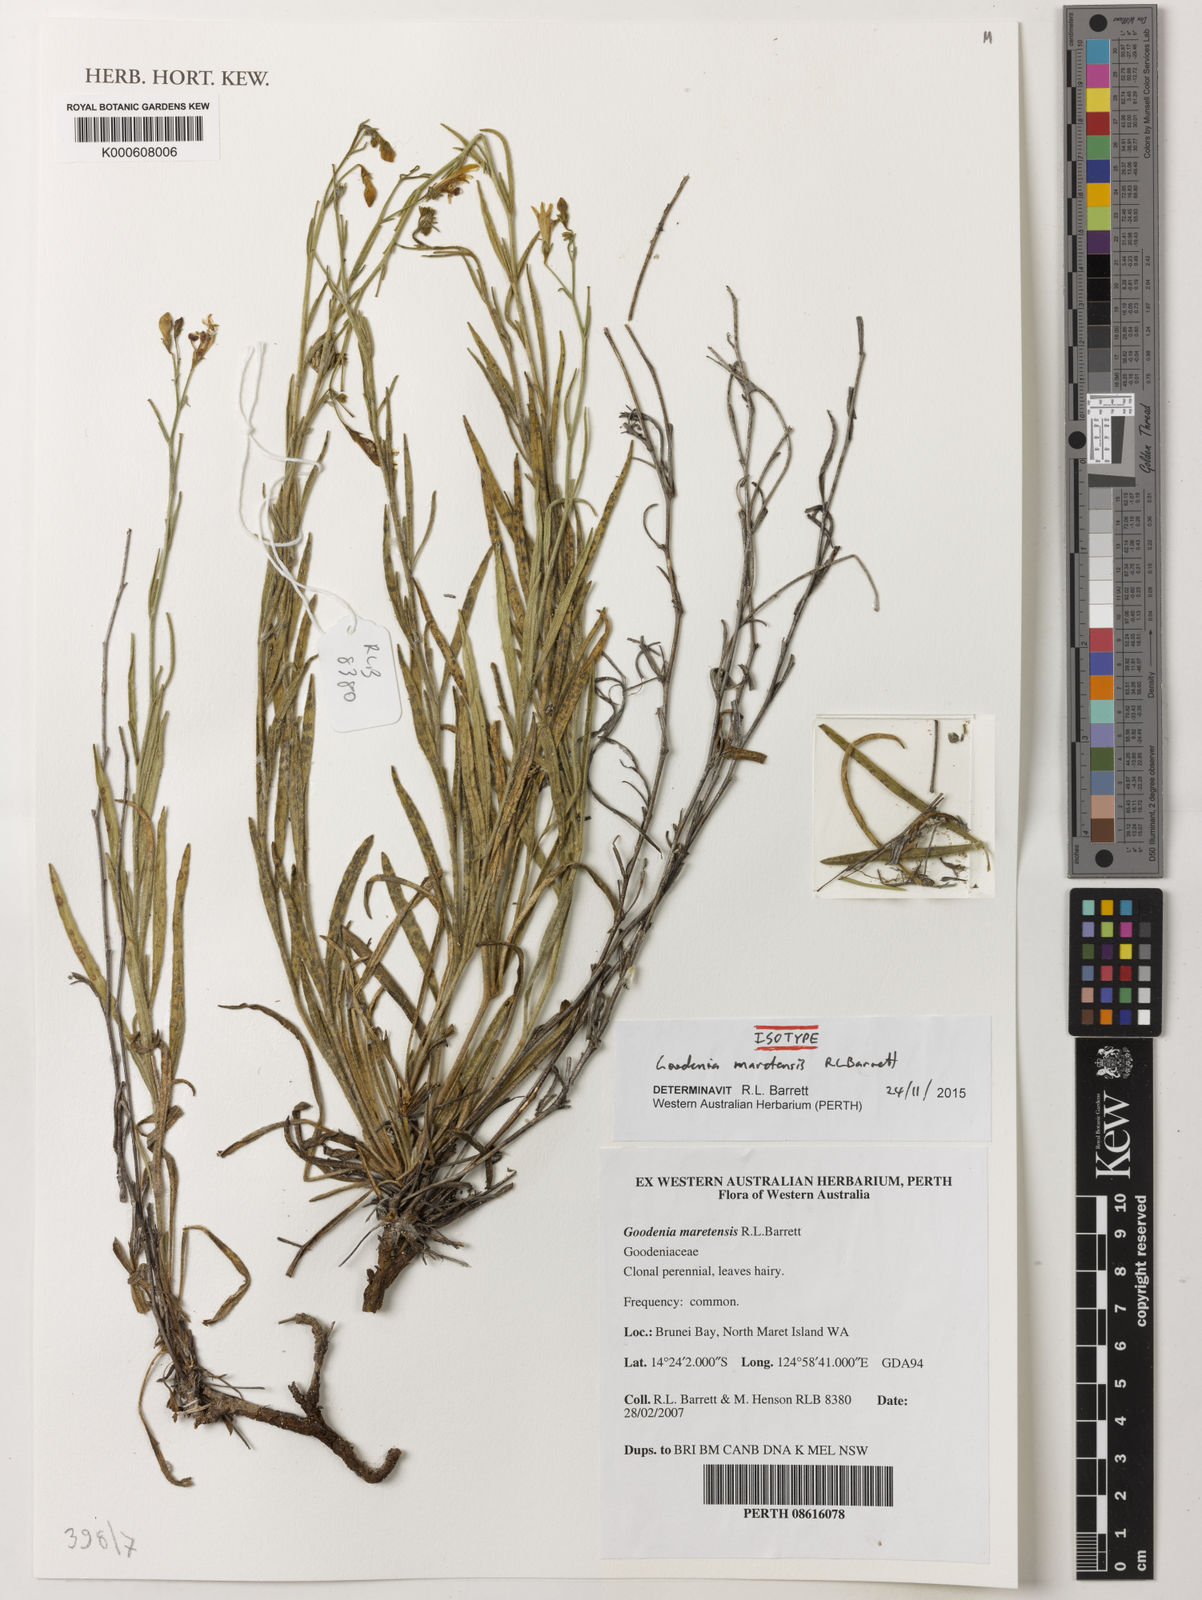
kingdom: Plantae
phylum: Tracheophyta
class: Magnoliopsida
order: Asterales
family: Goodeniaceae
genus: Goodenia
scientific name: Goodenia maretensis
